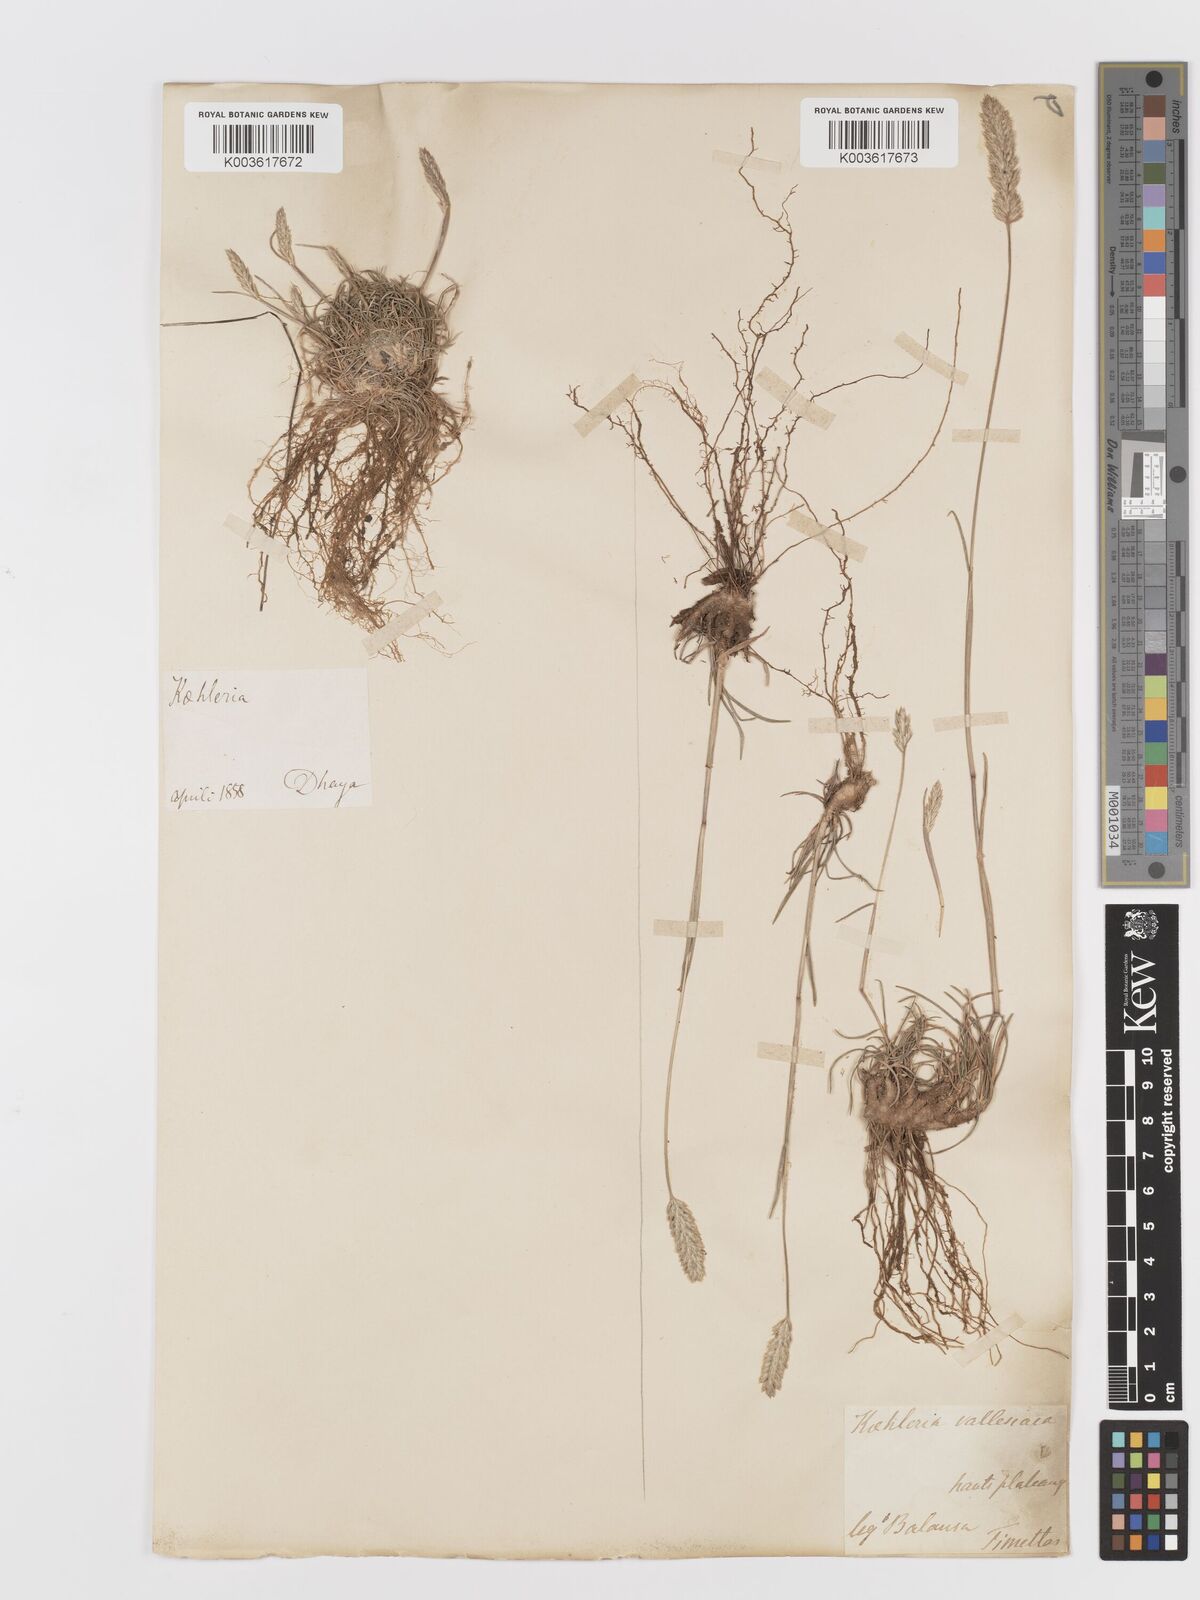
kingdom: Plantae
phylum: Tracheophyta
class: Liliopsida
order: Poales
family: Poaceae
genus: Koeleria
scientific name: Koeleria vallesiana
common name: Somerset hair-grass
